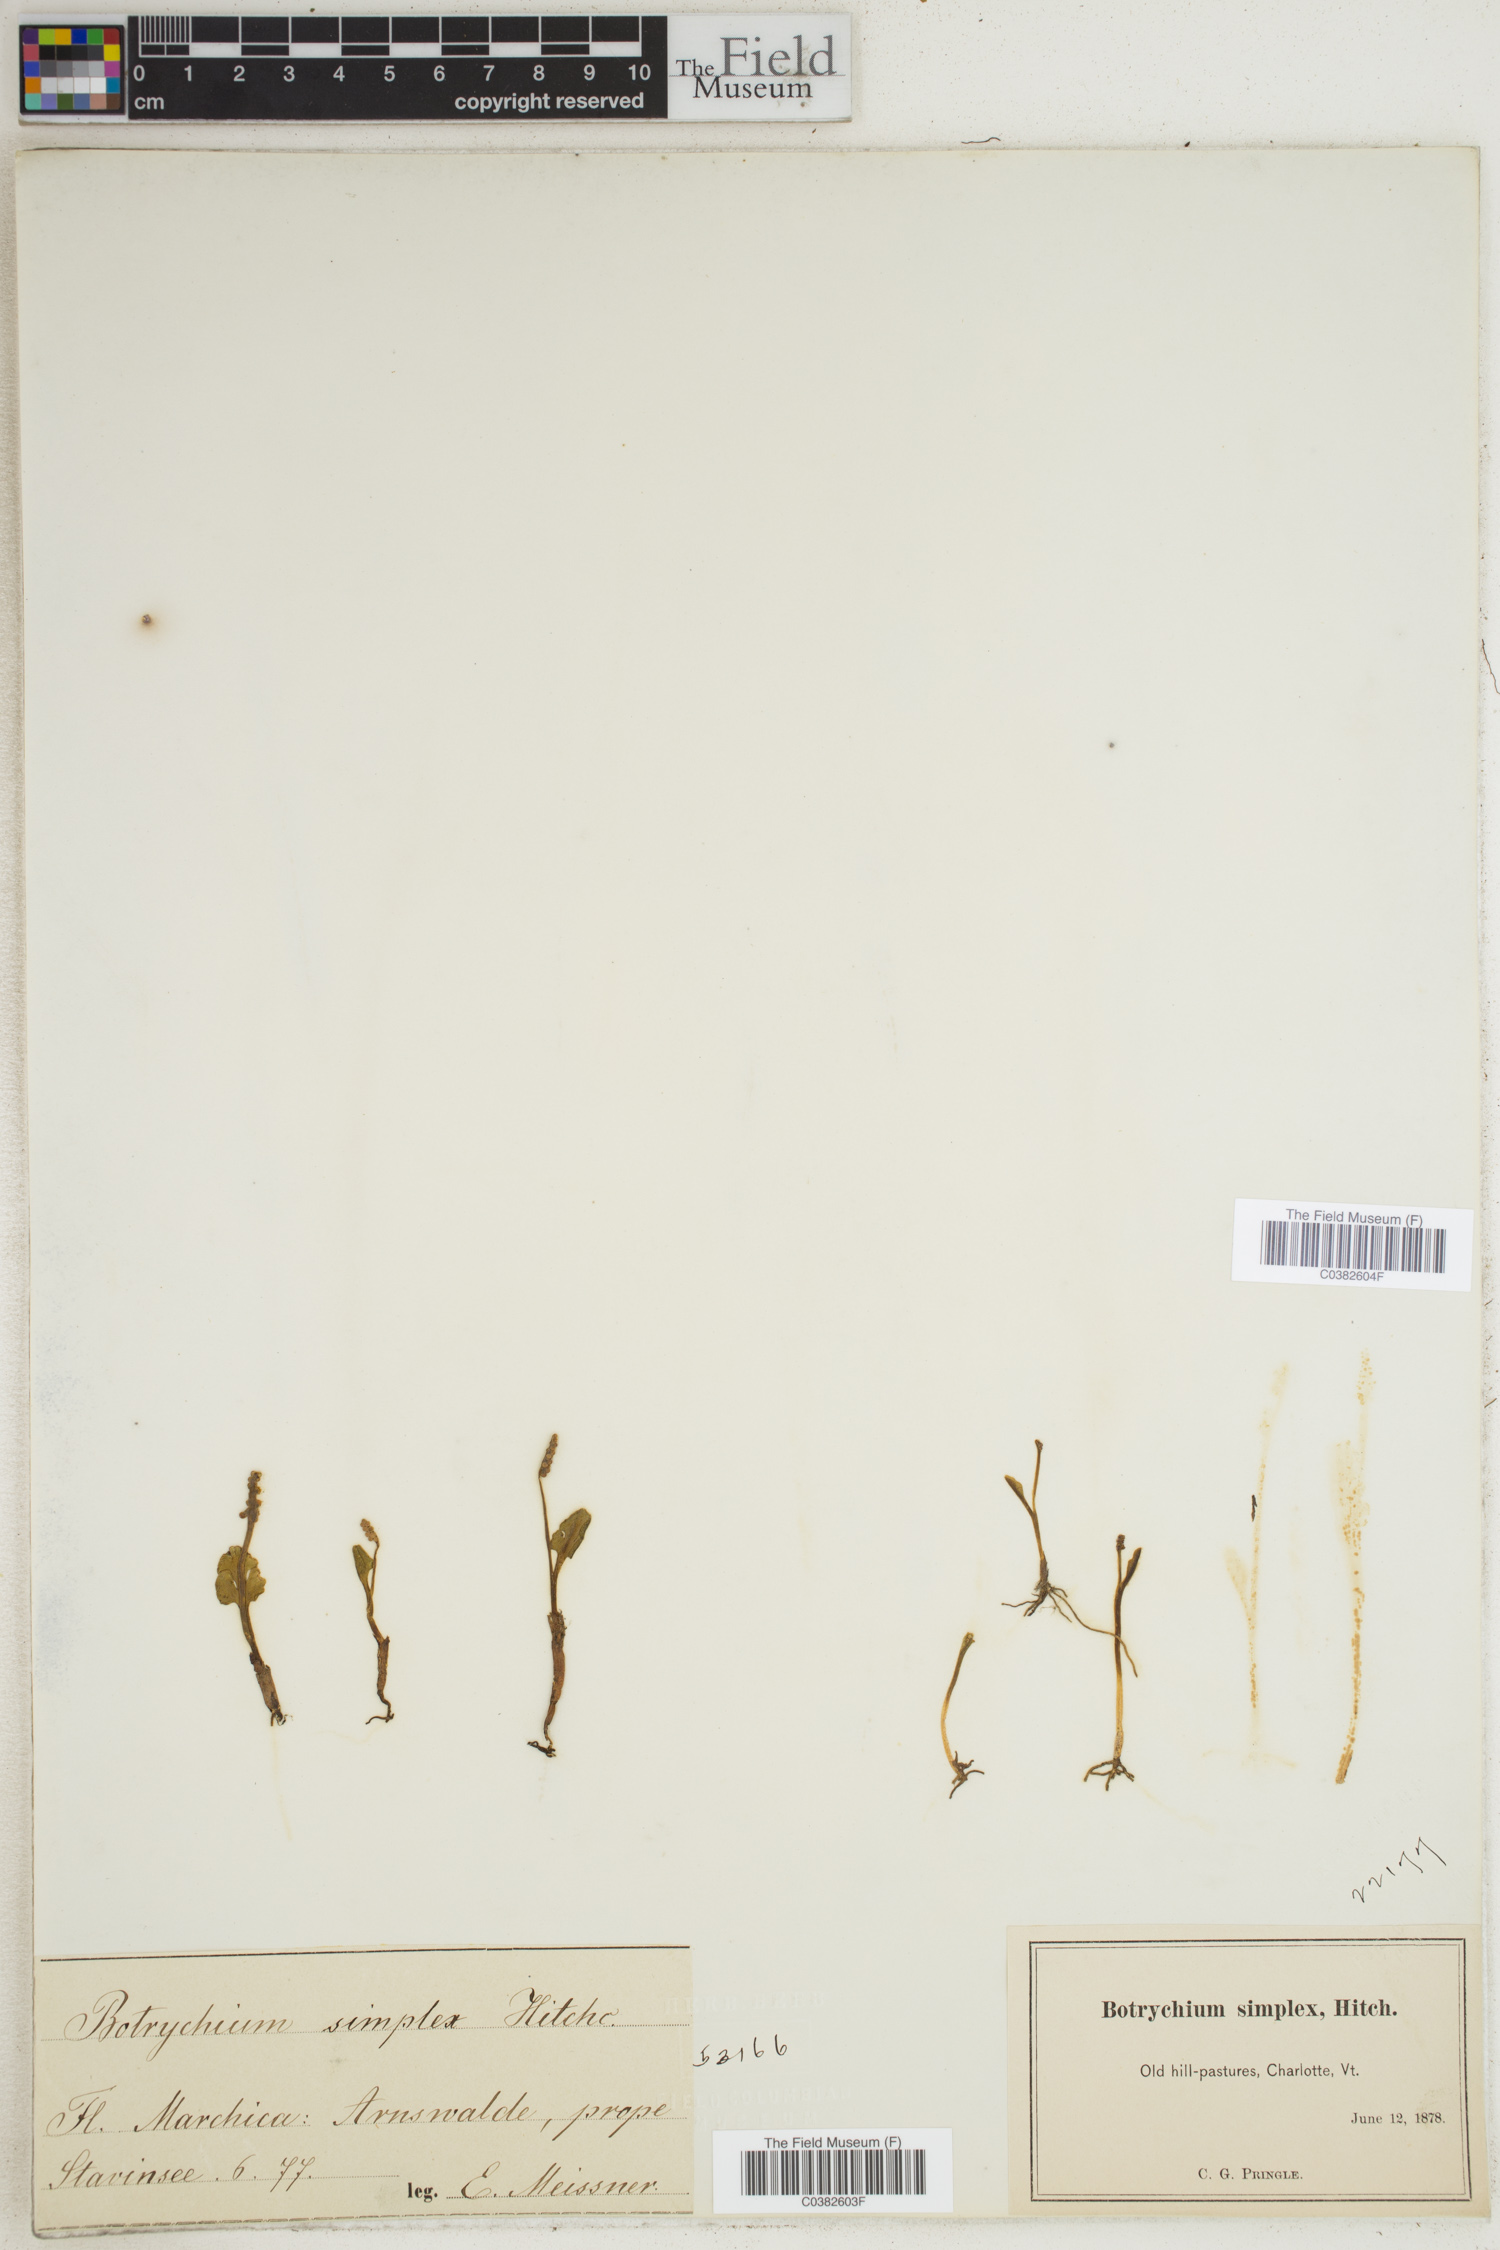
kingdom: Plantae
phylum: Tracheophyta
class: Polypodiopsida
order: Ophioglossales
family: Ophioglossaceae
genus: Botrychium
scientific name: Botrychium simplex
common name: Least moonwort
